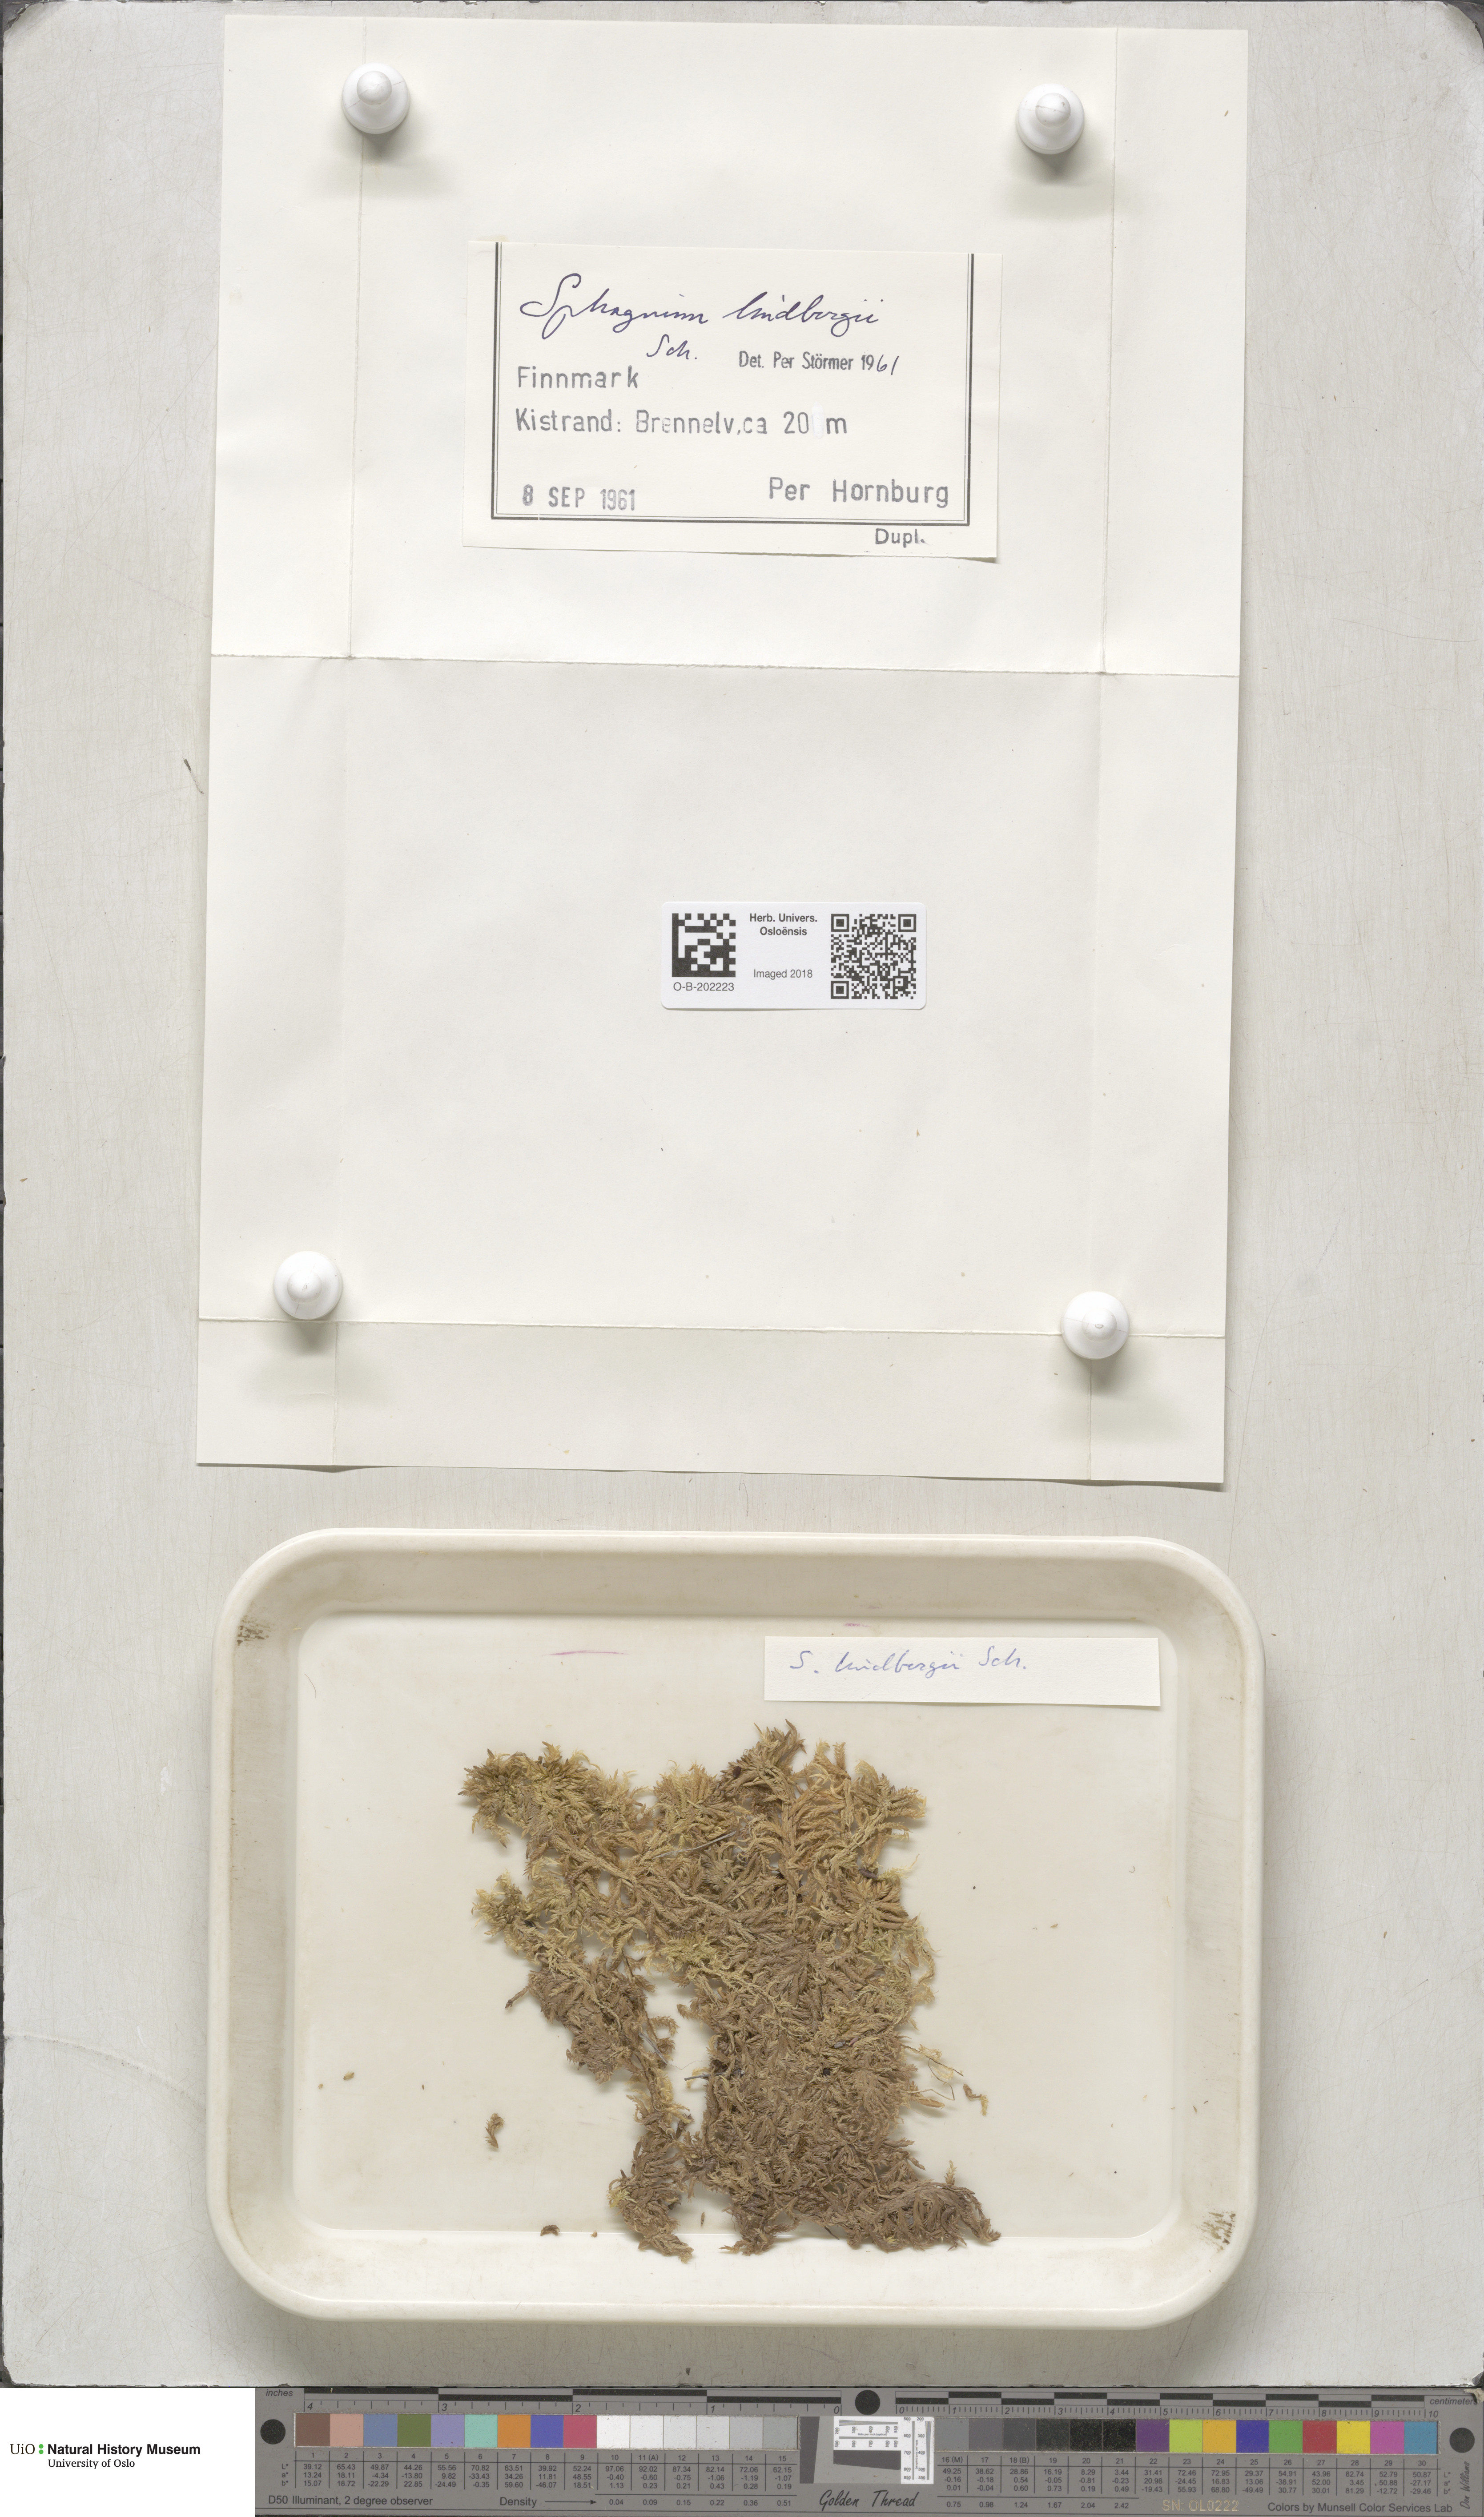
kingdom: Plantae
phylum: Bryophyta
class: Sphagnopsida
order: Sphagnales
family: Sphagnaceae
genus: Sphagnum
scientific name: Sphagnum lindbergii
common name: Lindberg's peat moss
